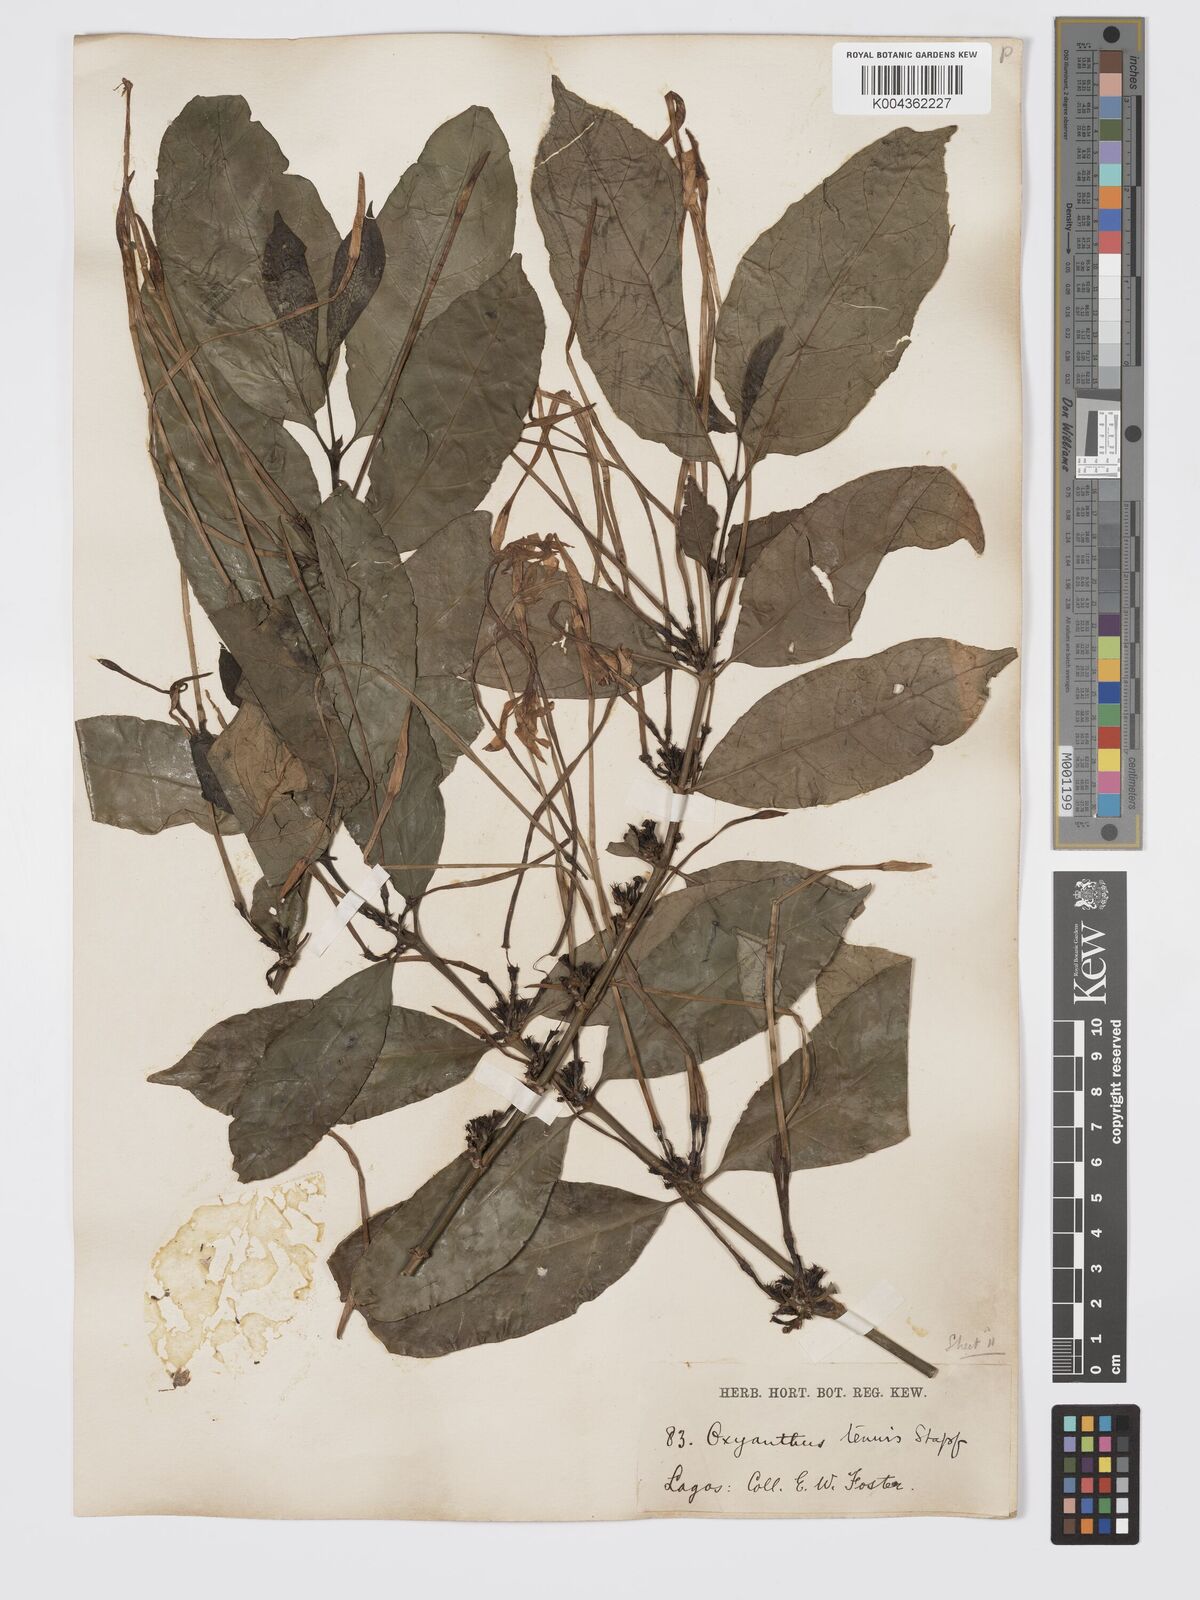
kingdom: Plantae
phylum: Tracheophyta
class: Magnoliopsida
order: Gentianales
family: Rubiaceae
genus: Oxyanthus
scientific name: Oxyanthus subpunctatus
